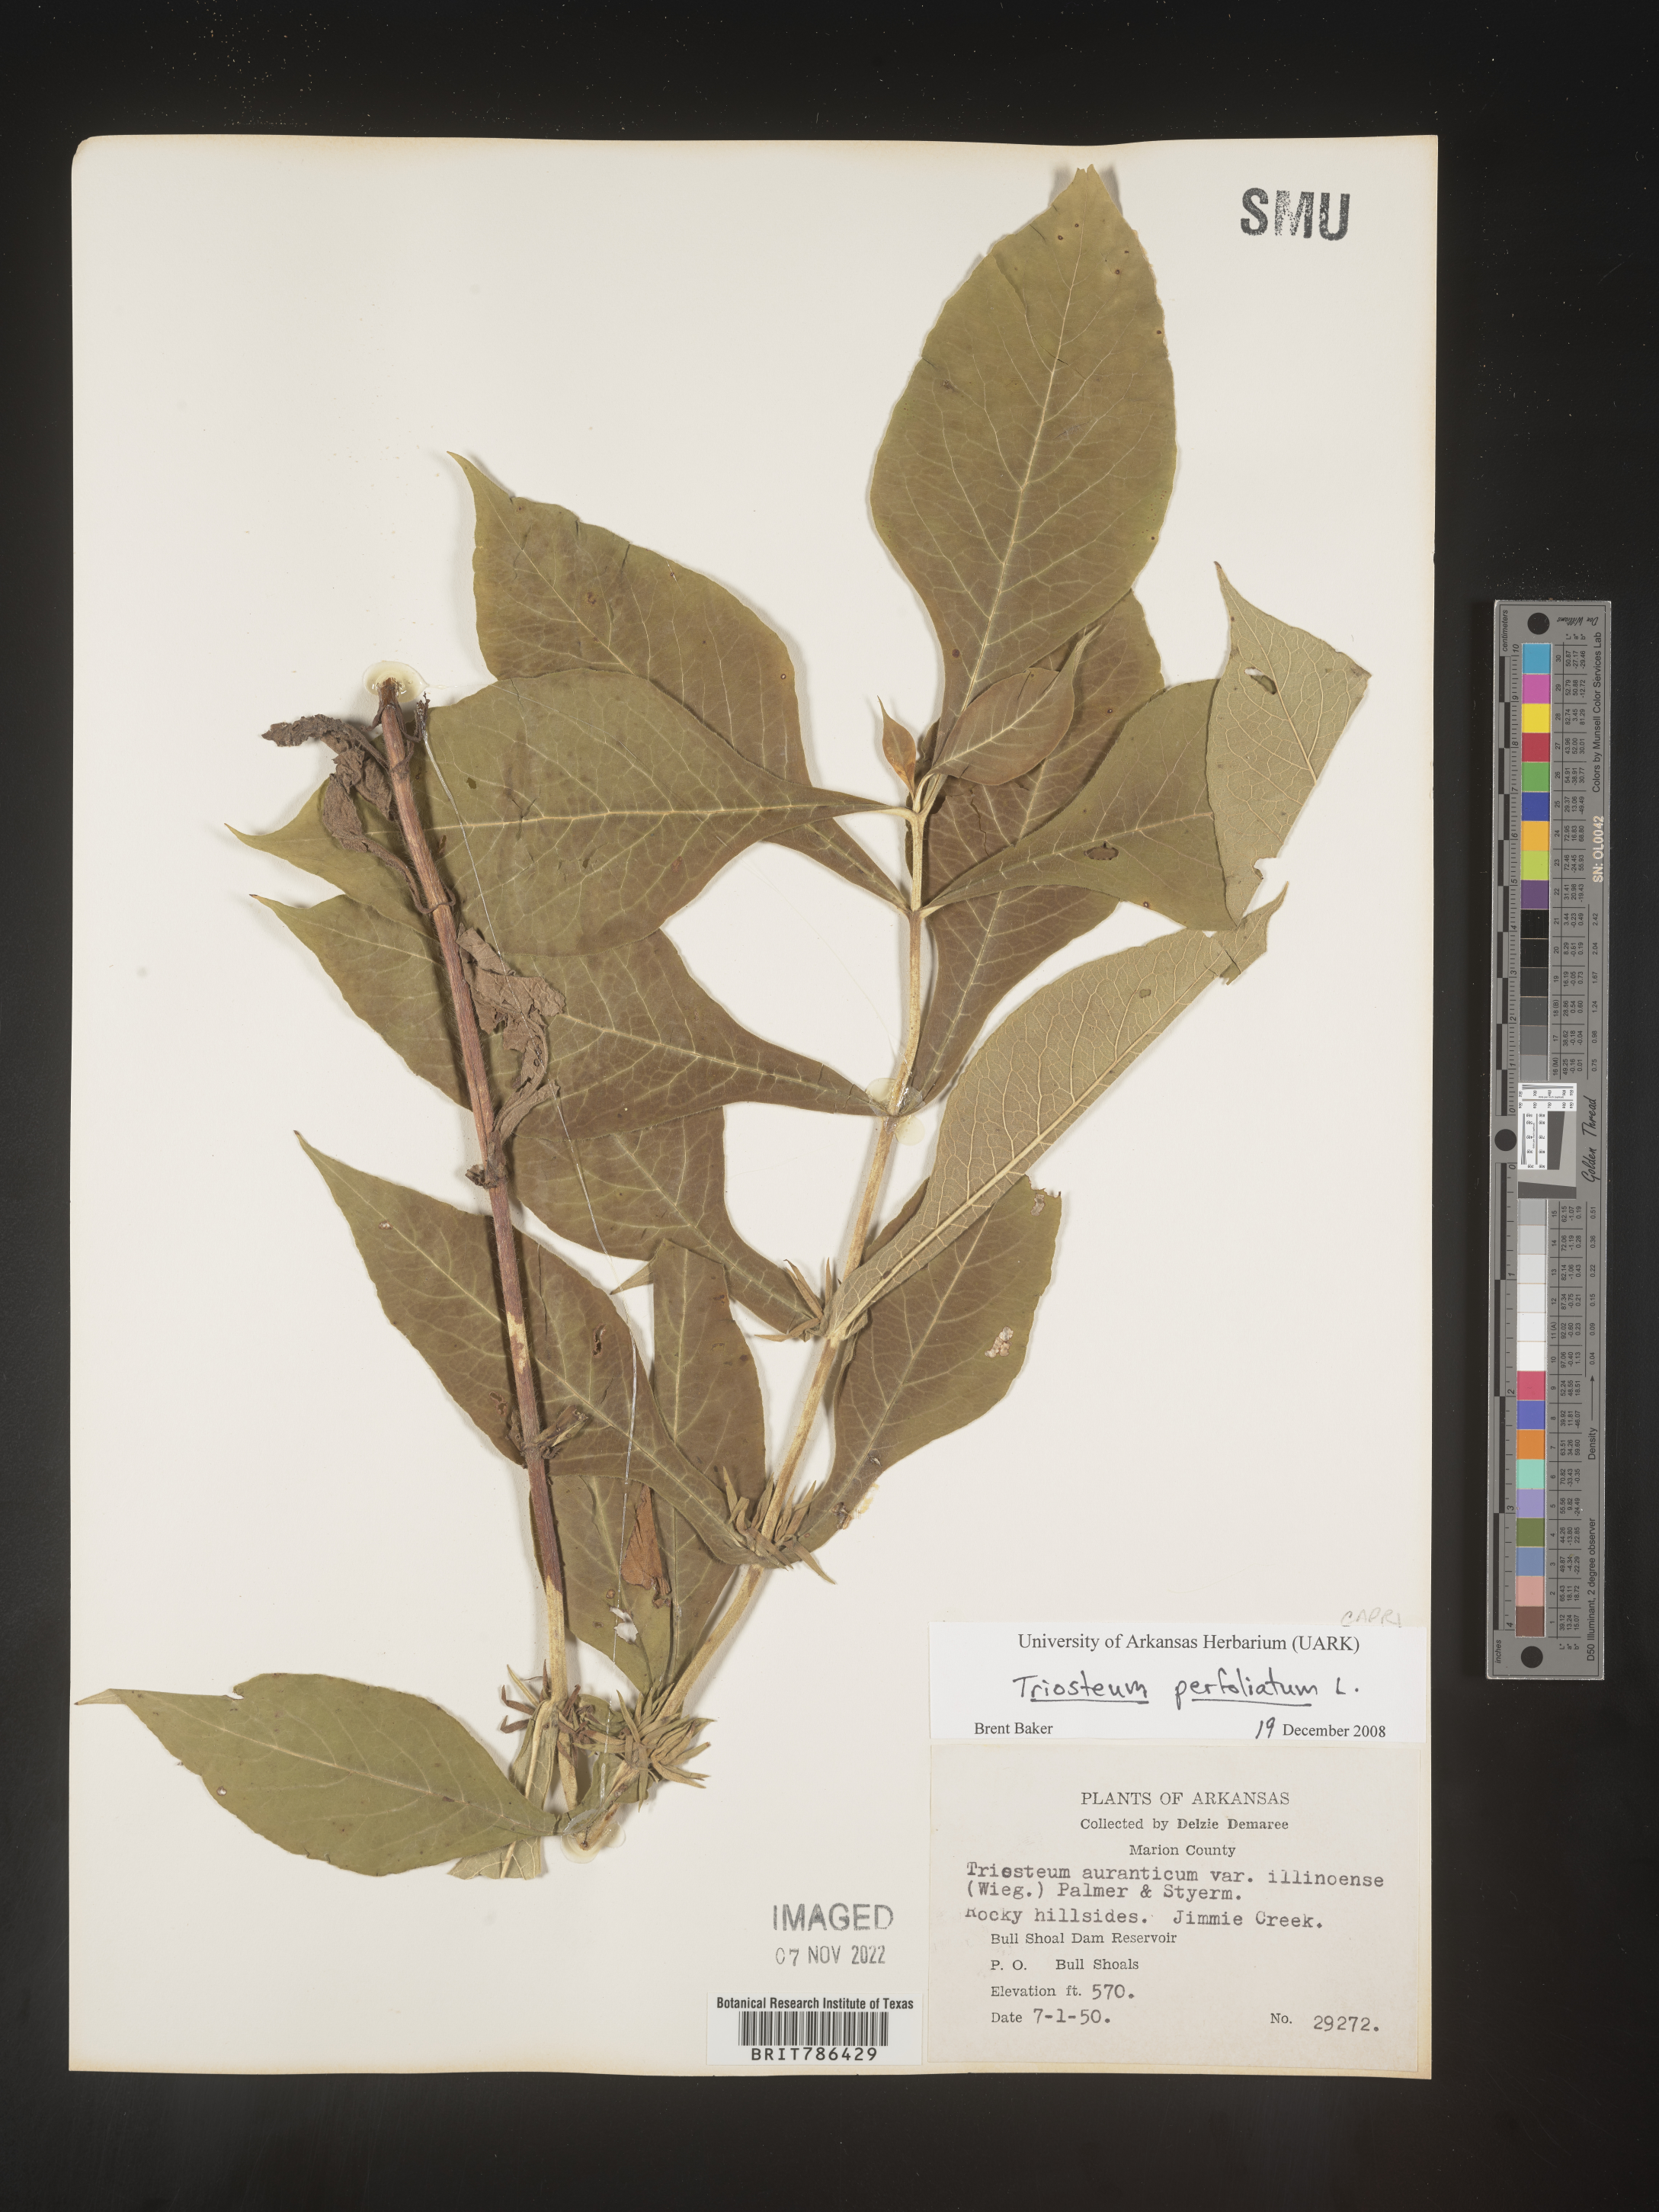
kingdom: Plantae
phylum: Tracheophyta
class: Magnoliopsida
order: Dipsacales
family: Caprifoliaceae
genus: Triosteum
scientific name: Triosteum perfoliatum
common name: Common horse-gentian
